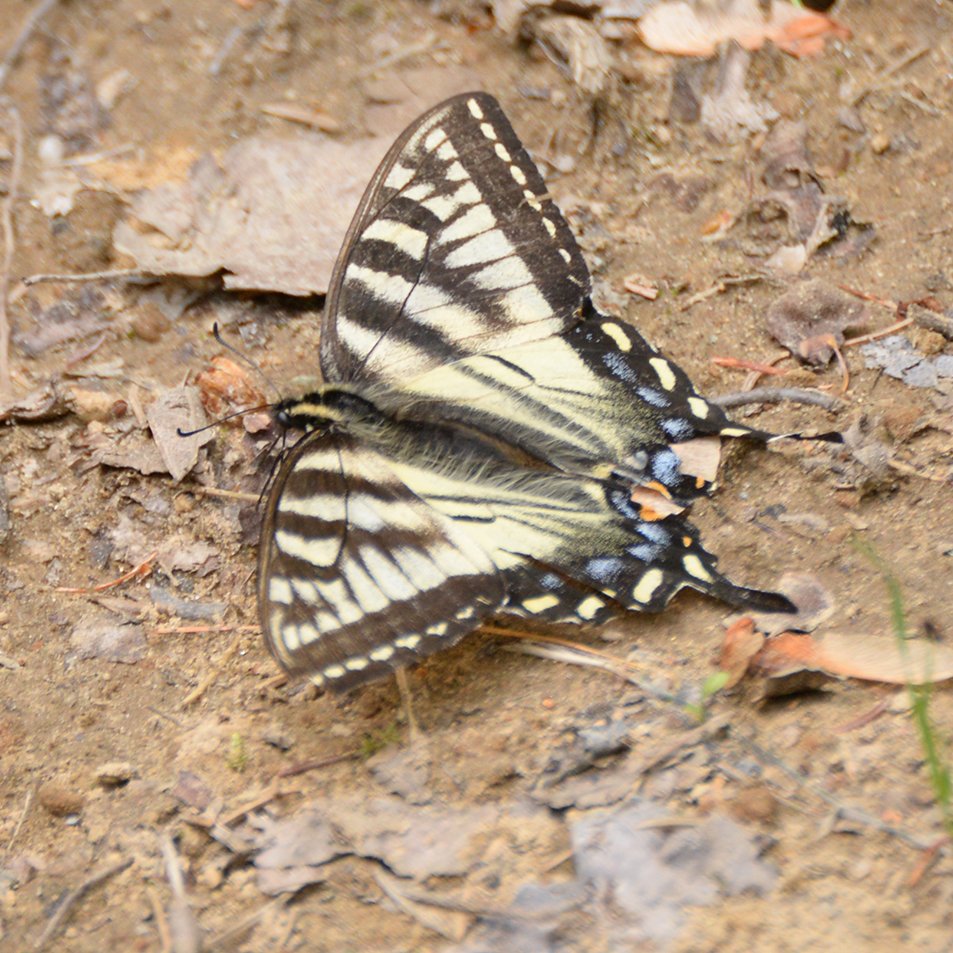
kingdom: Animalia
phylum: Arthropoda
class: Insecta
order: Lepidoptera
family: Papilionidae
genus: Pterourus
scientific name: Pterourus canadensis
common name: Canadian Tiger Swallowtail
